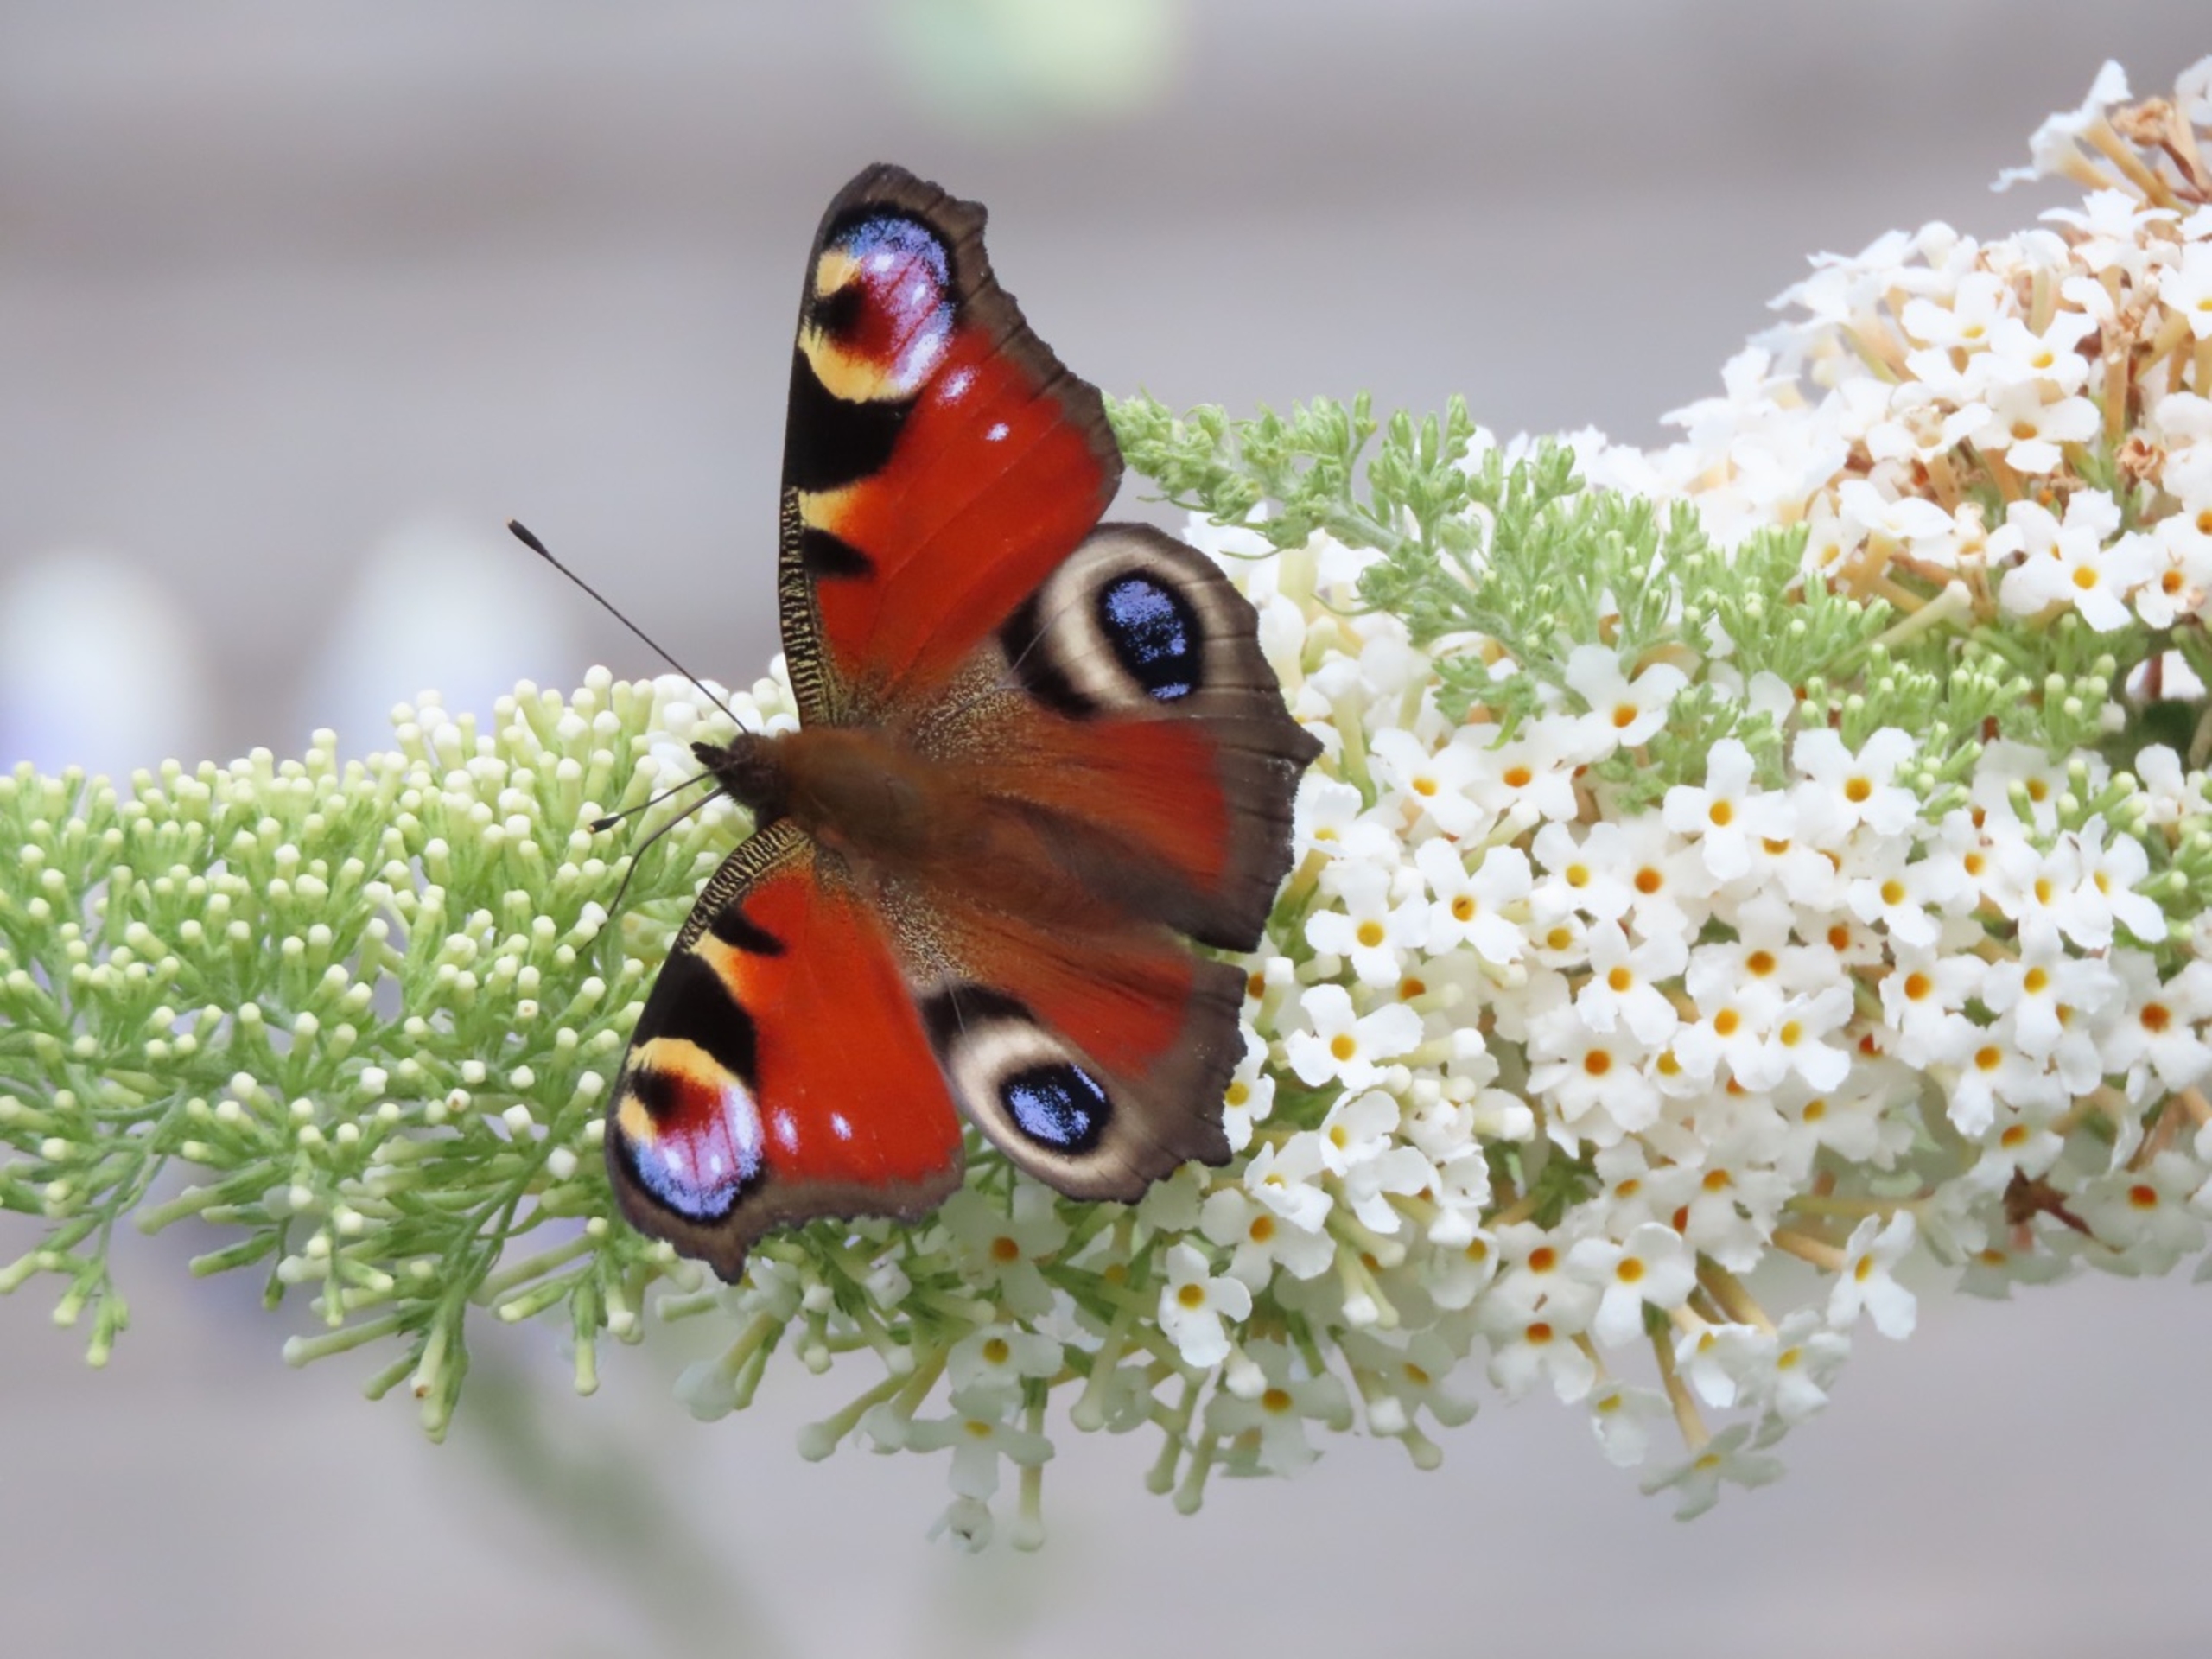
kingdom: Animalia
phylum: Arthropoda
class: Insecta
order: Lepidoptera
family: Nymphalidae
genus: Aglais
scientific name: Aglais io
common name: Dagpåfugleøje
